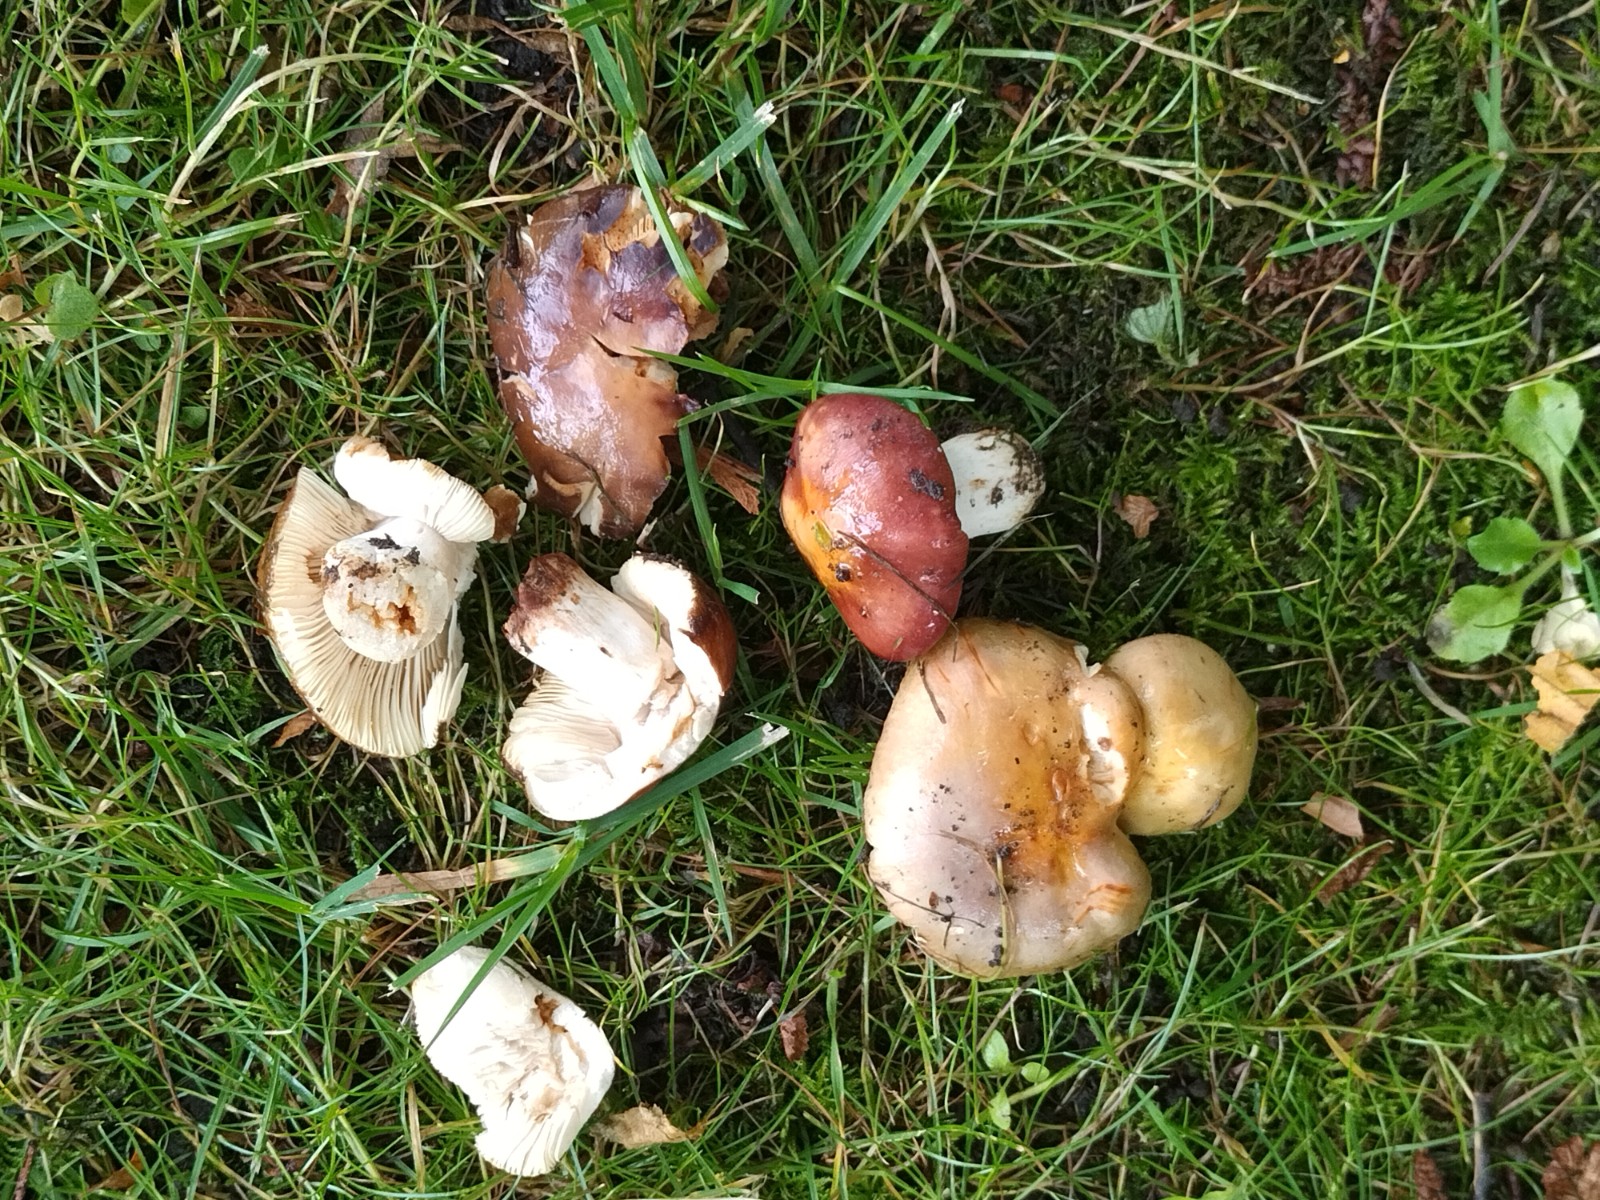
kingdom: Fungi
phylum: Basidiomycota
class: Agaricomycetes
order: Russulales
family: Russulaceae
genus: Russula
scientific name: Russula carpini
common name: avnbøg-skørhat
